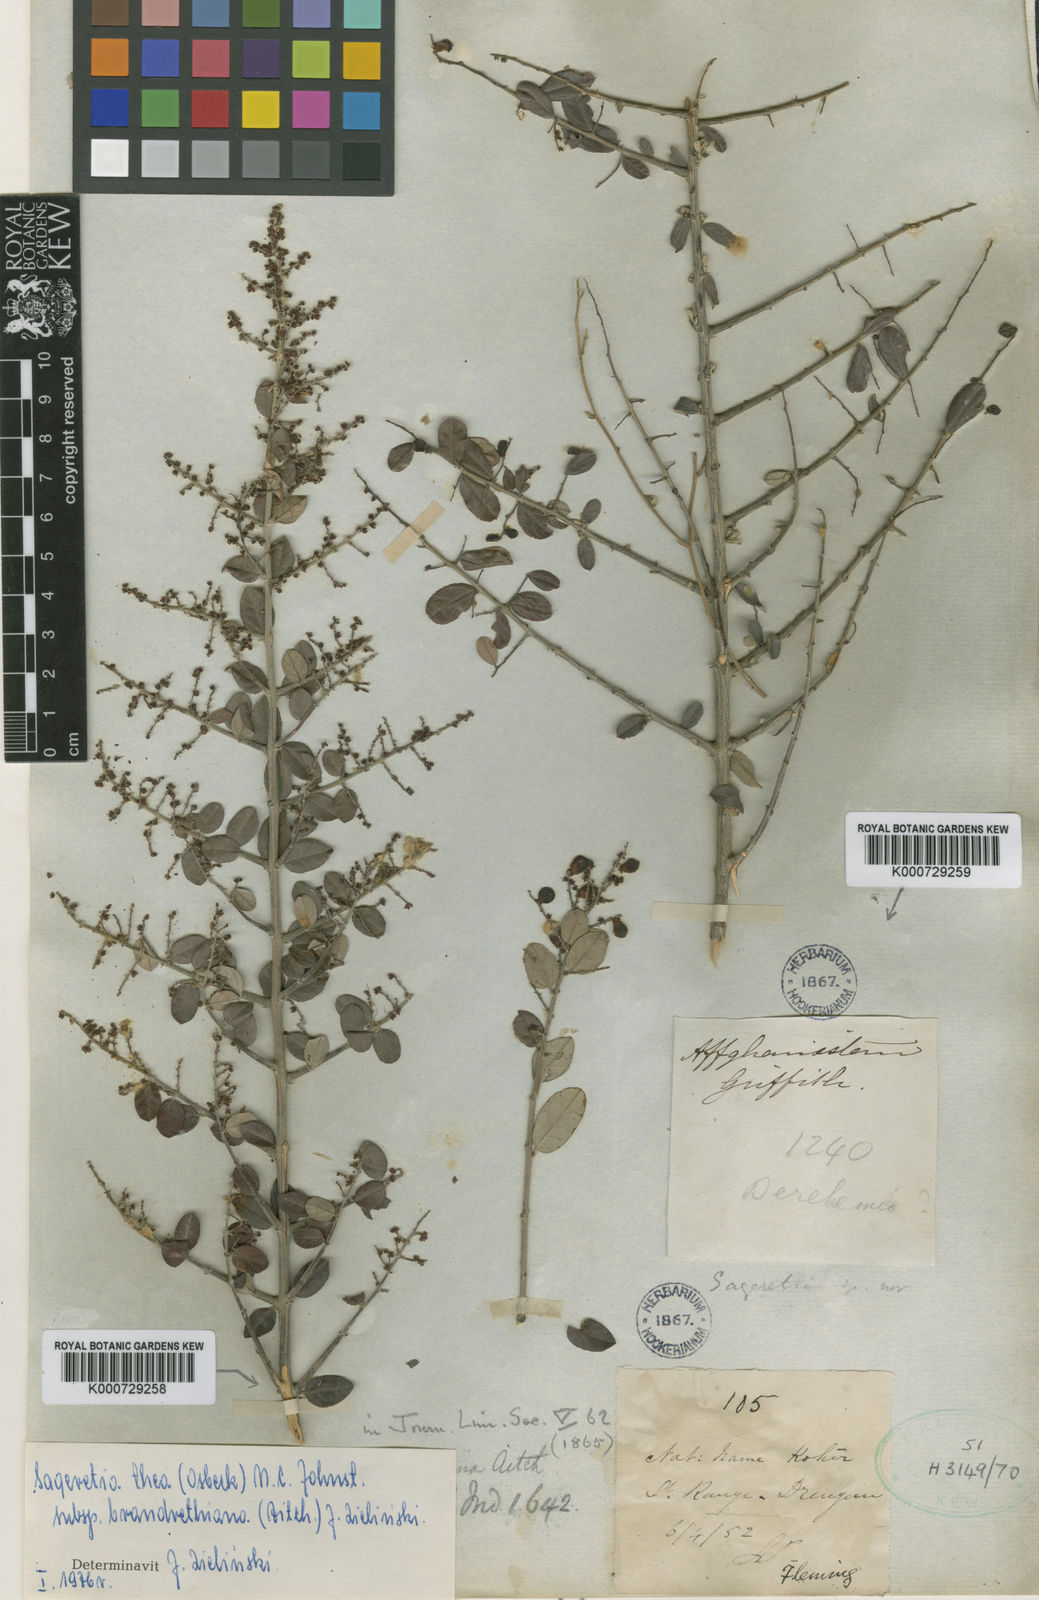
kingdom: Plantae
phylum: Tracheophyta
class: Magnoliopsida
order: Rosales
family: Rhamnaceae
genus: Sageretia
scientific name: Sageretia thea
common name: Pauper's-tea
